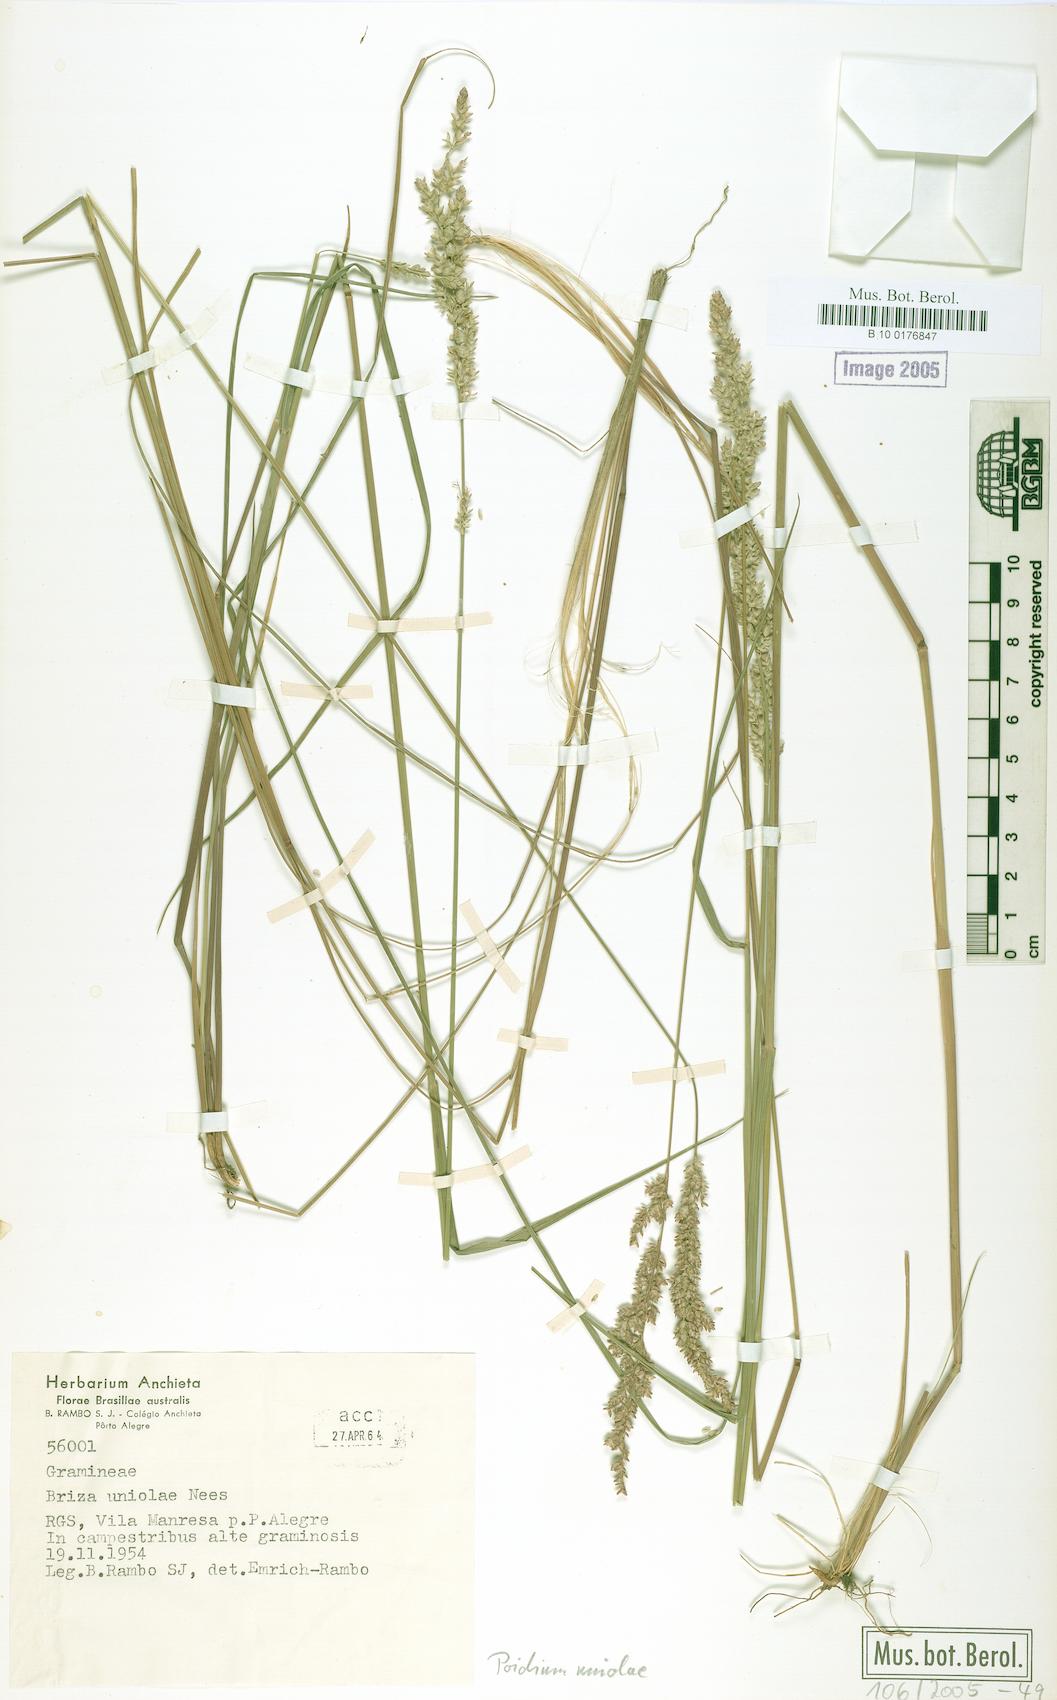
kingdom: Plantae
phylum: Tracheophyta
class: Liliopsida
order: Poales
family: Poaceae
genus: Poidium
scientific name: Poidium uniolae
